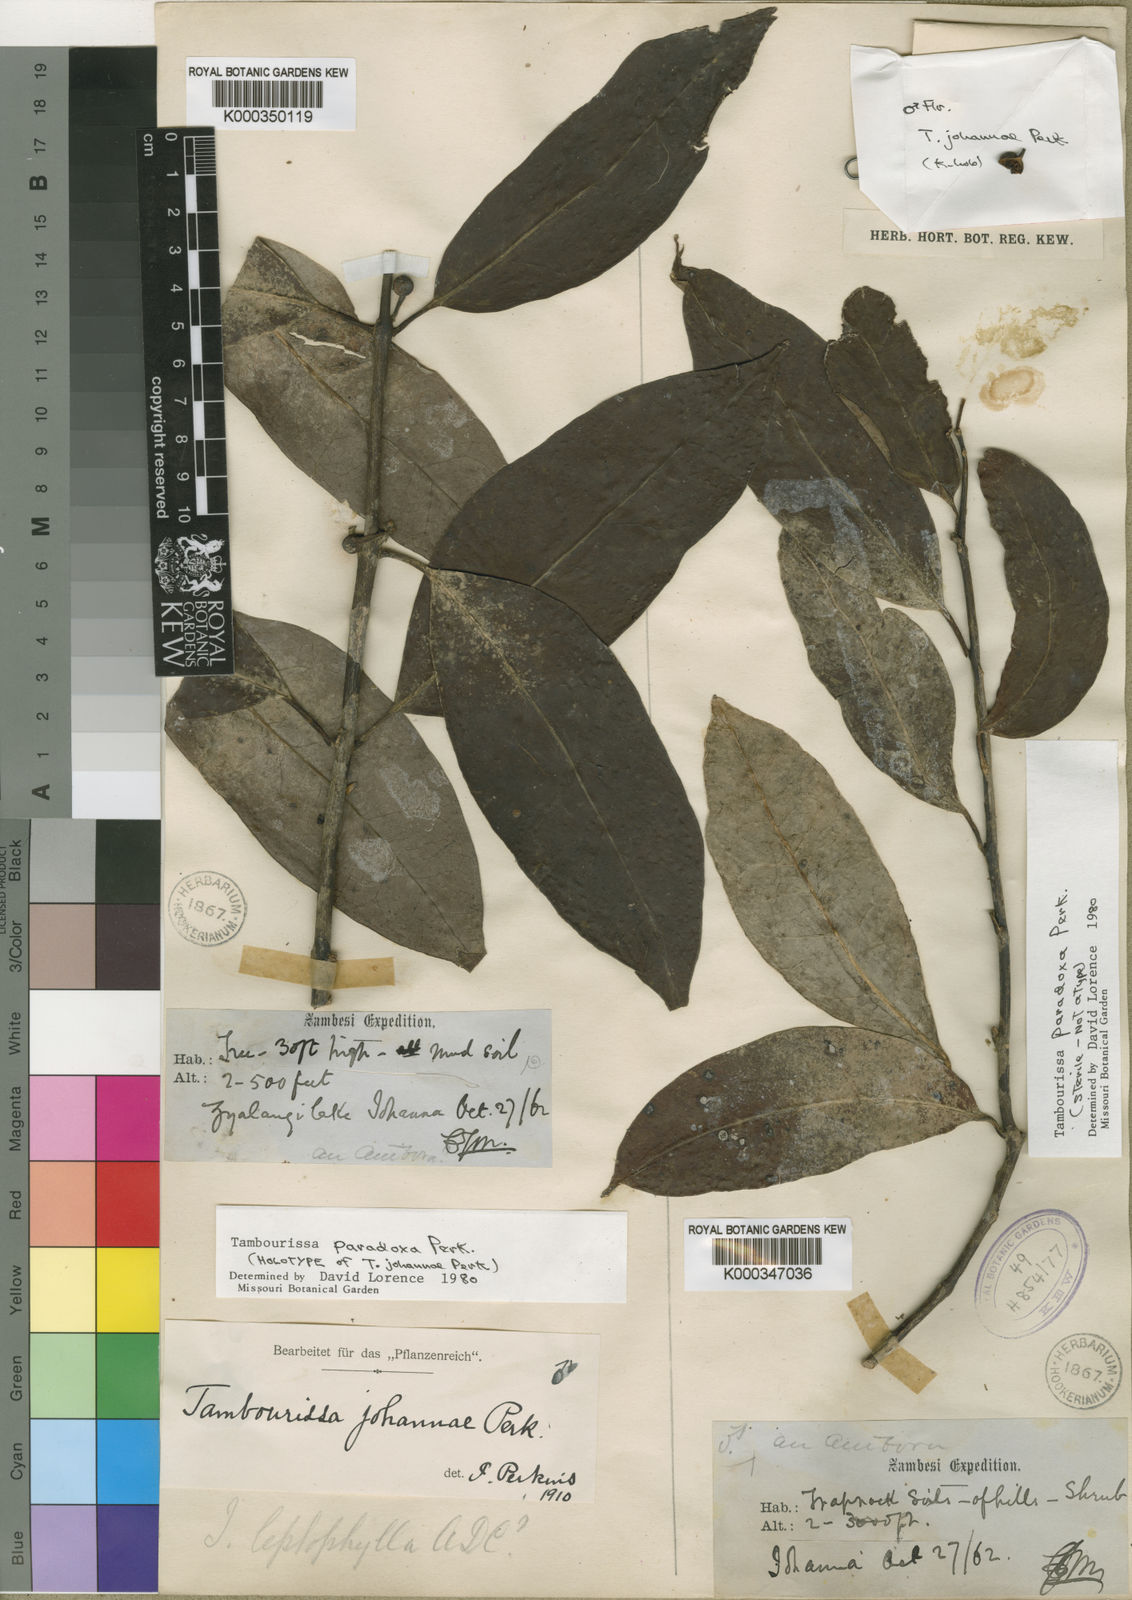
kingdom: Plantae
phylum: Tracheophyta
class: Magnoliopsida
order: Laurales
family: Monimiaceae
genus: Tambourissa
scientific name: Tambourissa paradoxa
